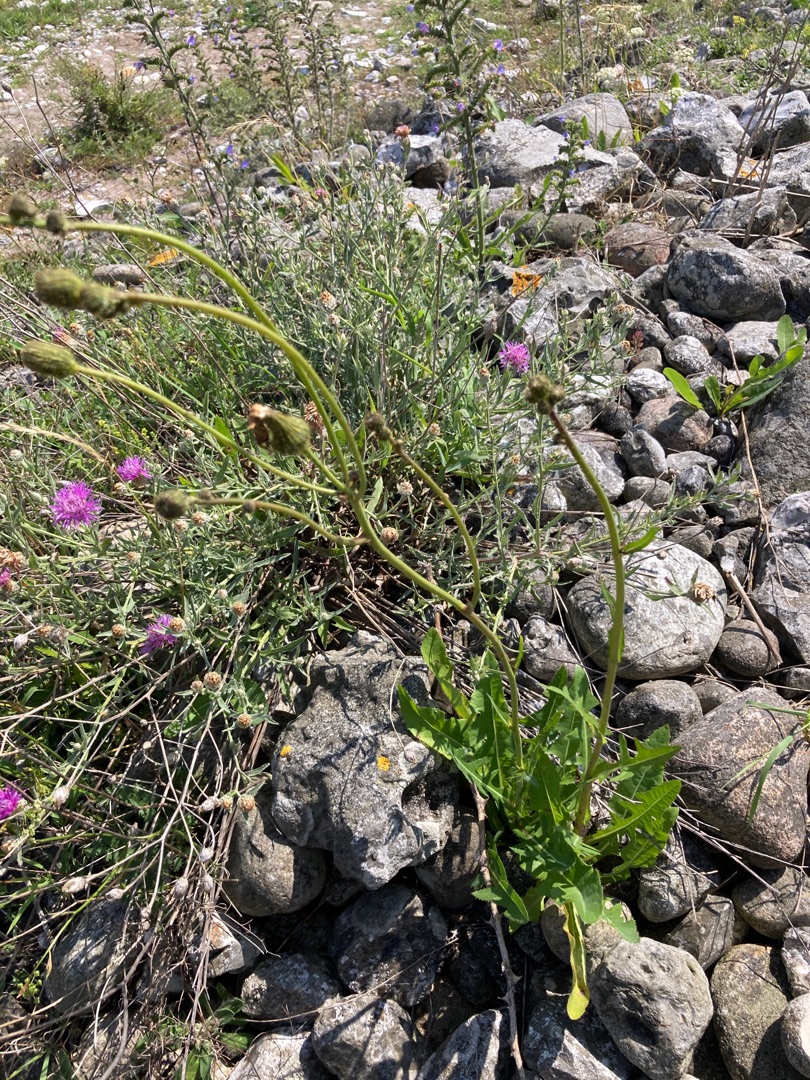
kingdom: Plantae
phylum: Tracheophyta
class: Magnoliopsida
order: Asterales
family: Asteraceae
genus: Sonchus
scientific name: Sonchus arvensis
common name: Ager-svinemælk
